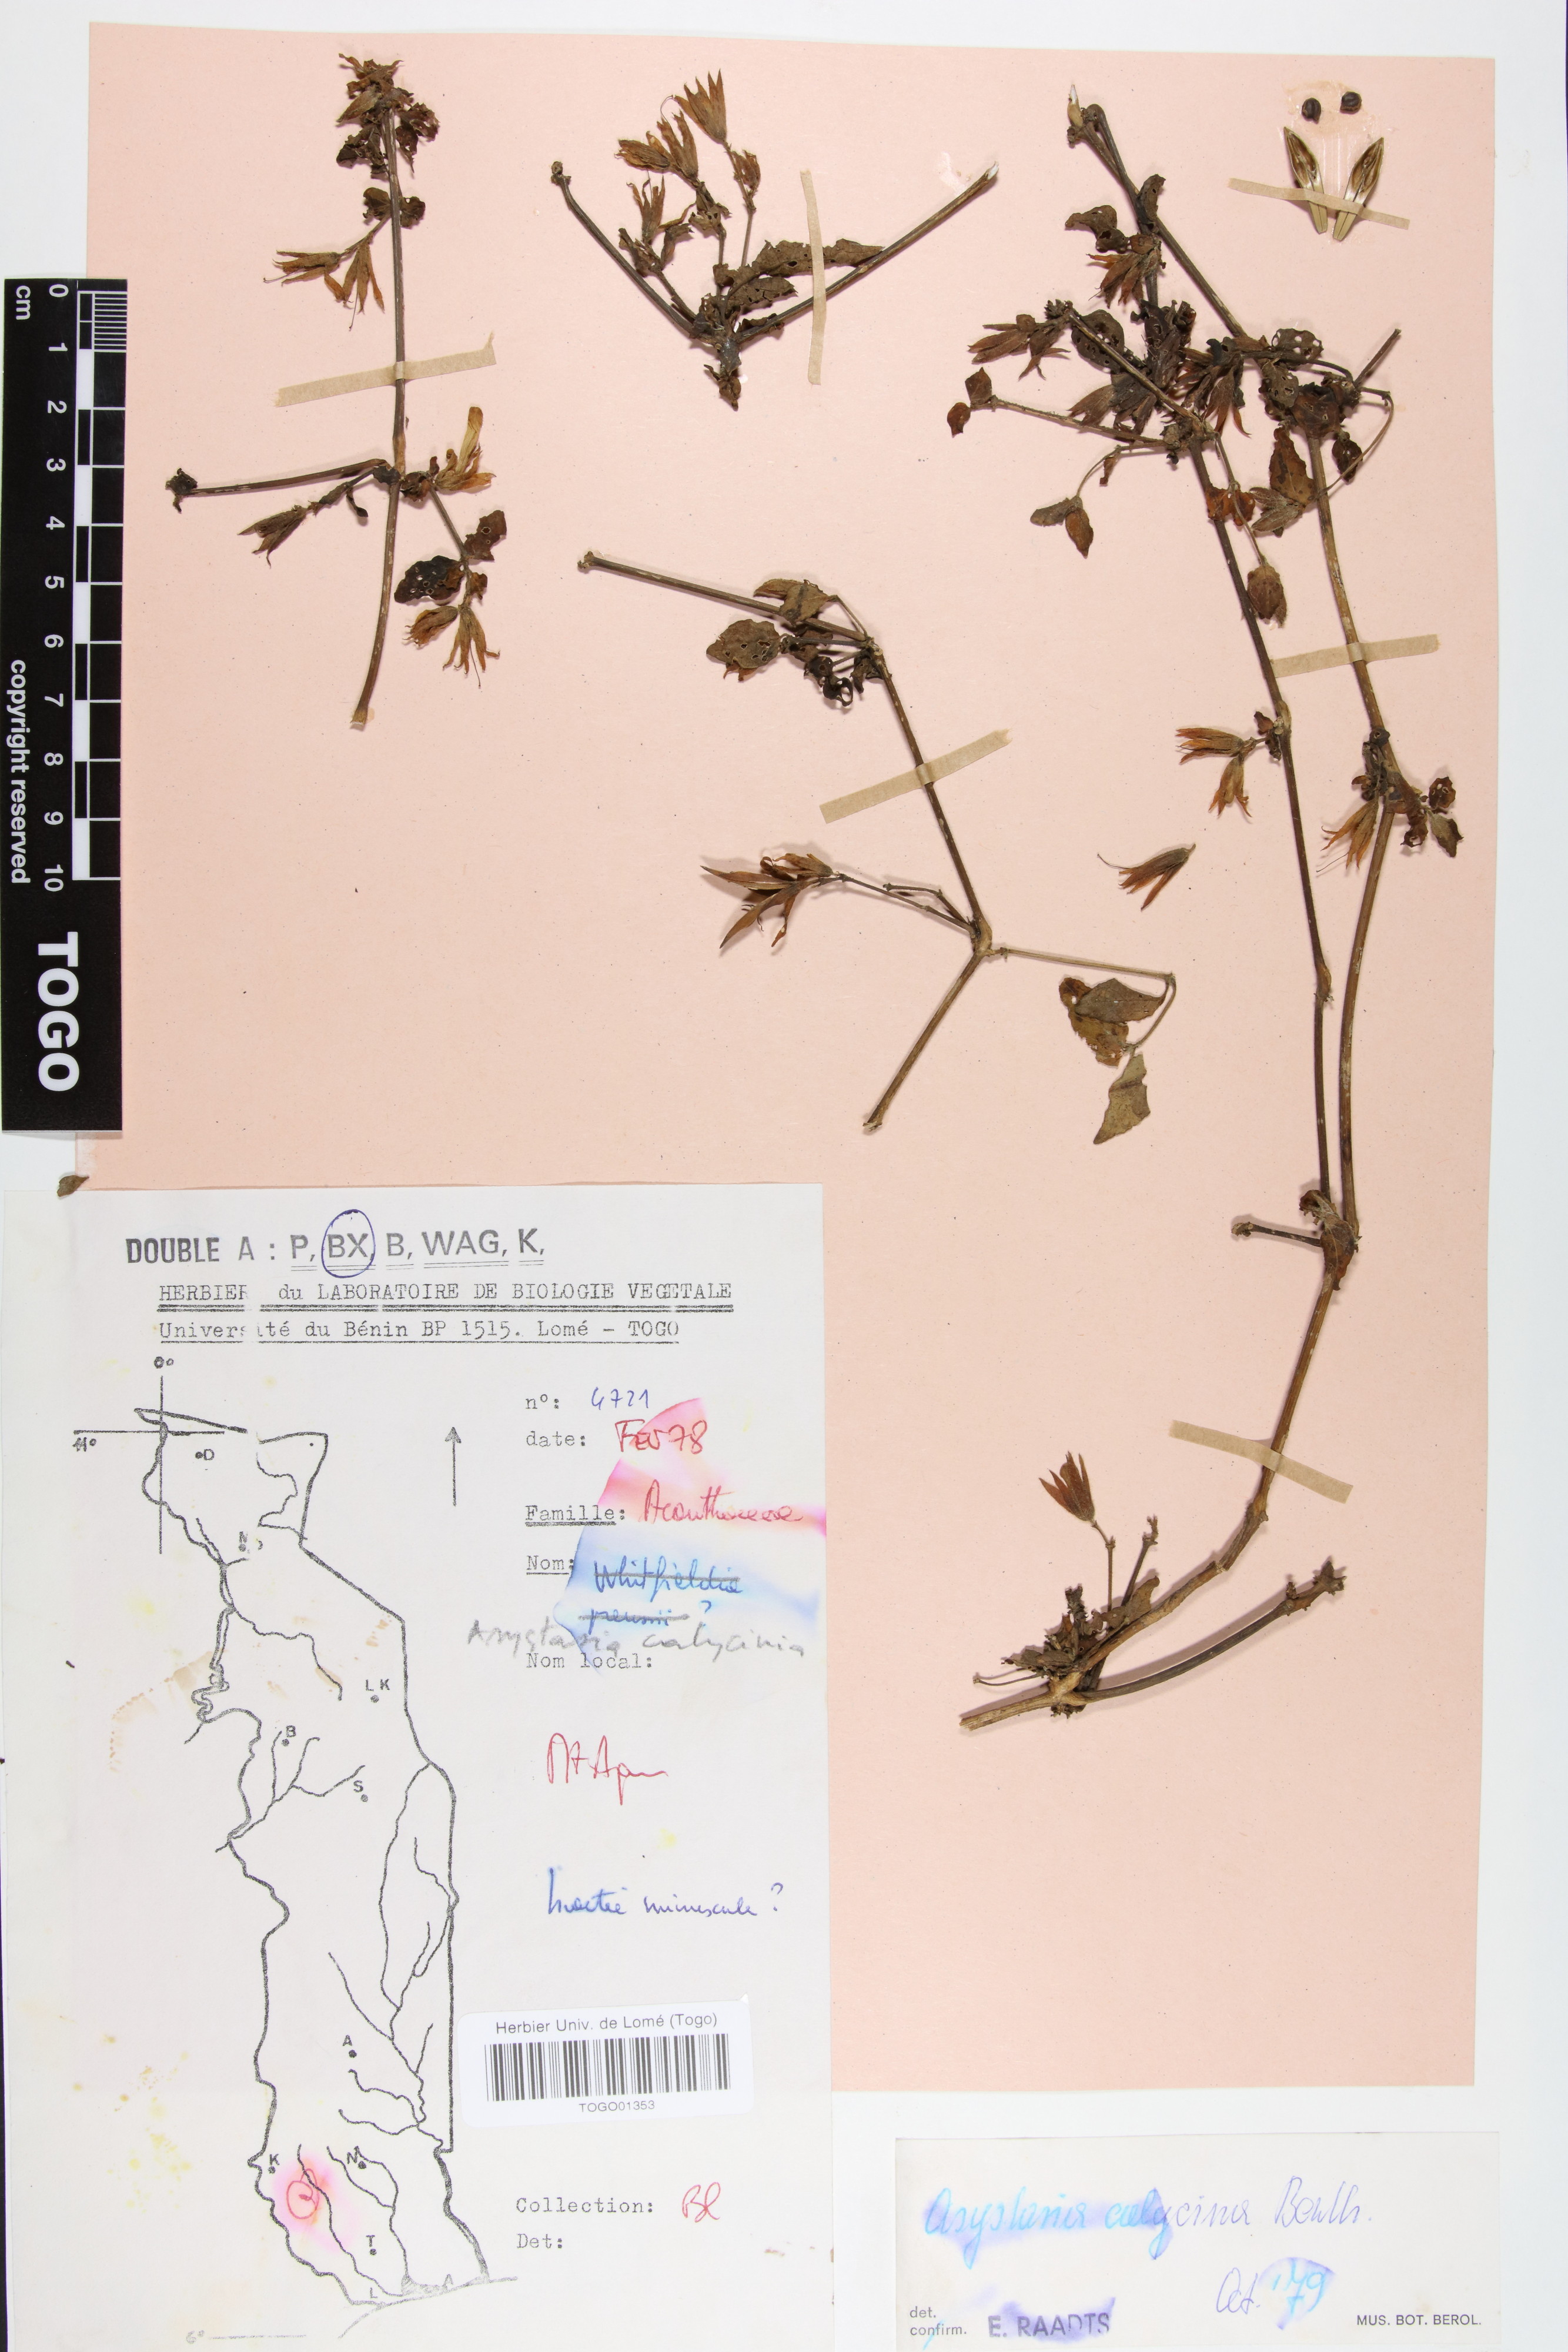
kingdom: Plantae
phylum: Tracheophyta
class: Magnoliopsida
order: Lamiales
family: Acanthaceae
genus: Asystasia
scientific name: Asystasia buettneri
